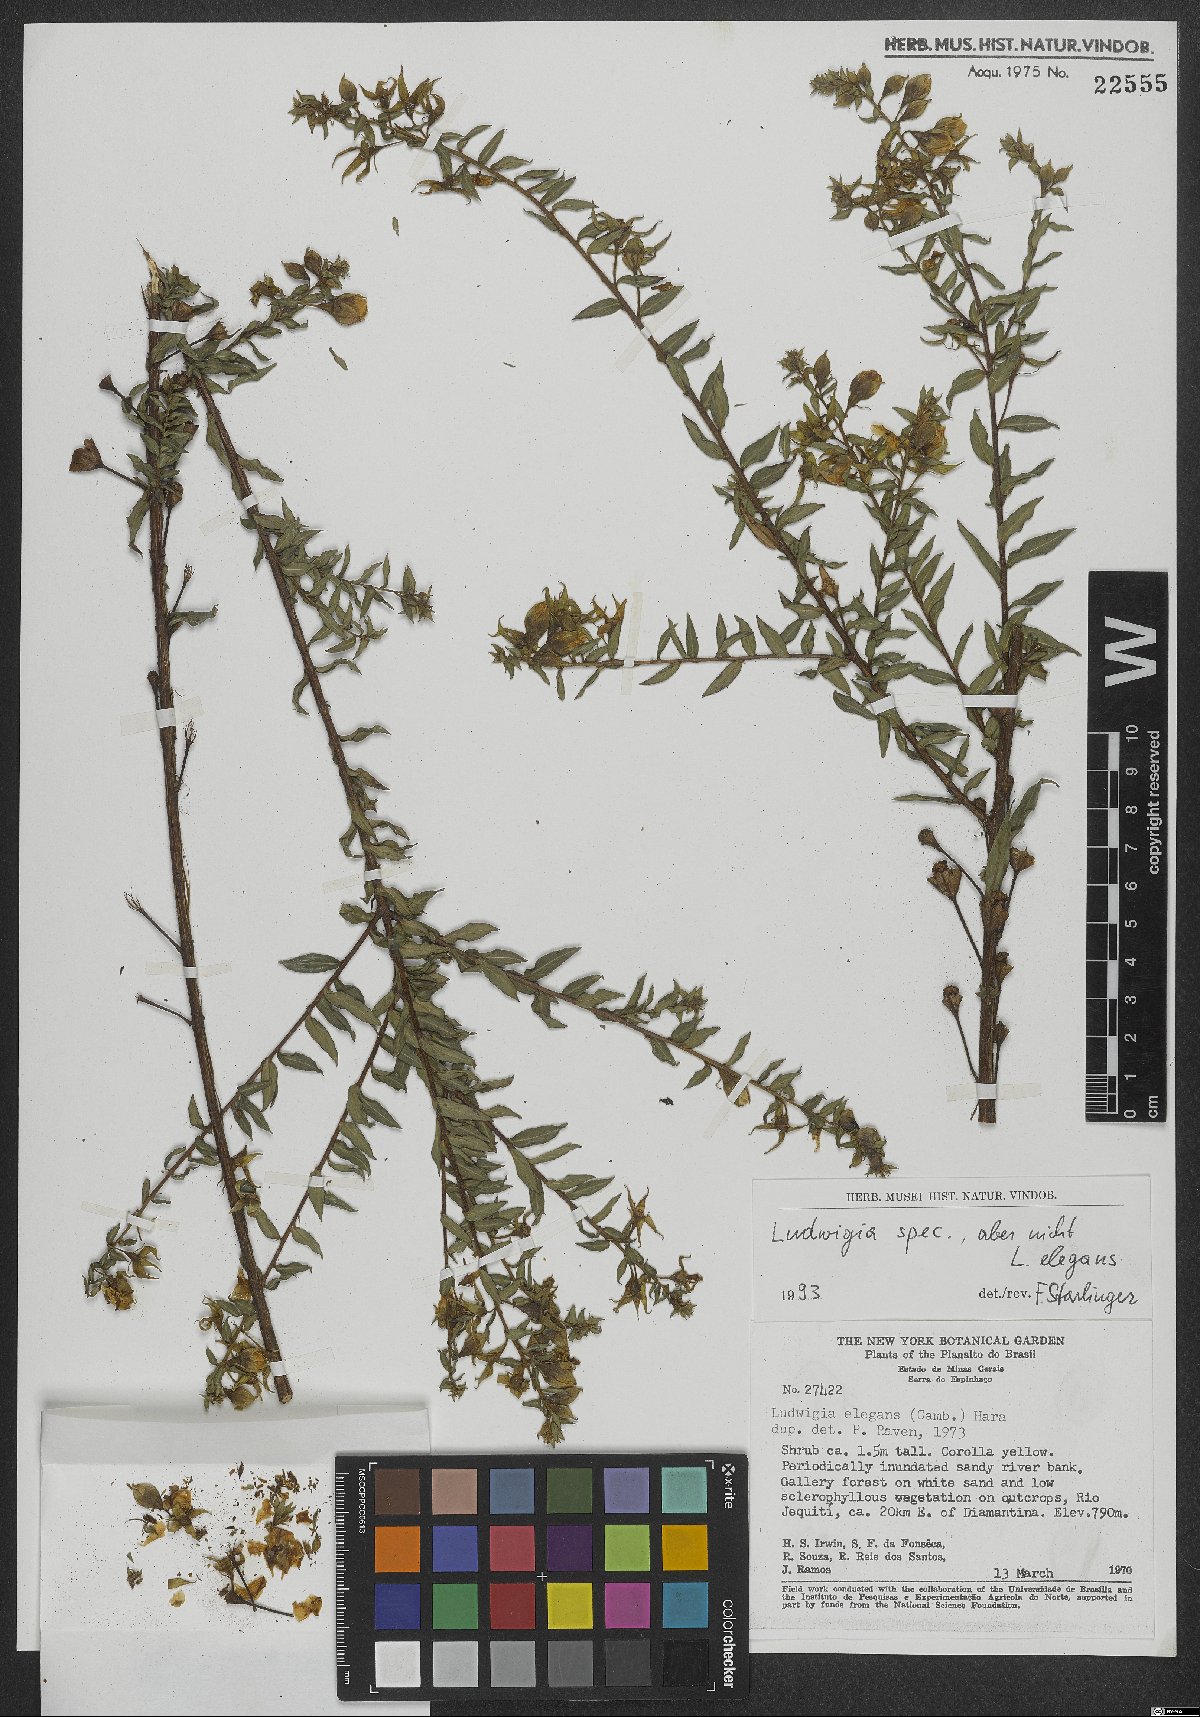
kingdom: Plantae
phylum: Tracheophyta
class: Magnoliopsida
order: Myrtales
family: Onagraceae
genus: Ludwigia
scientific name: Ludwigia
